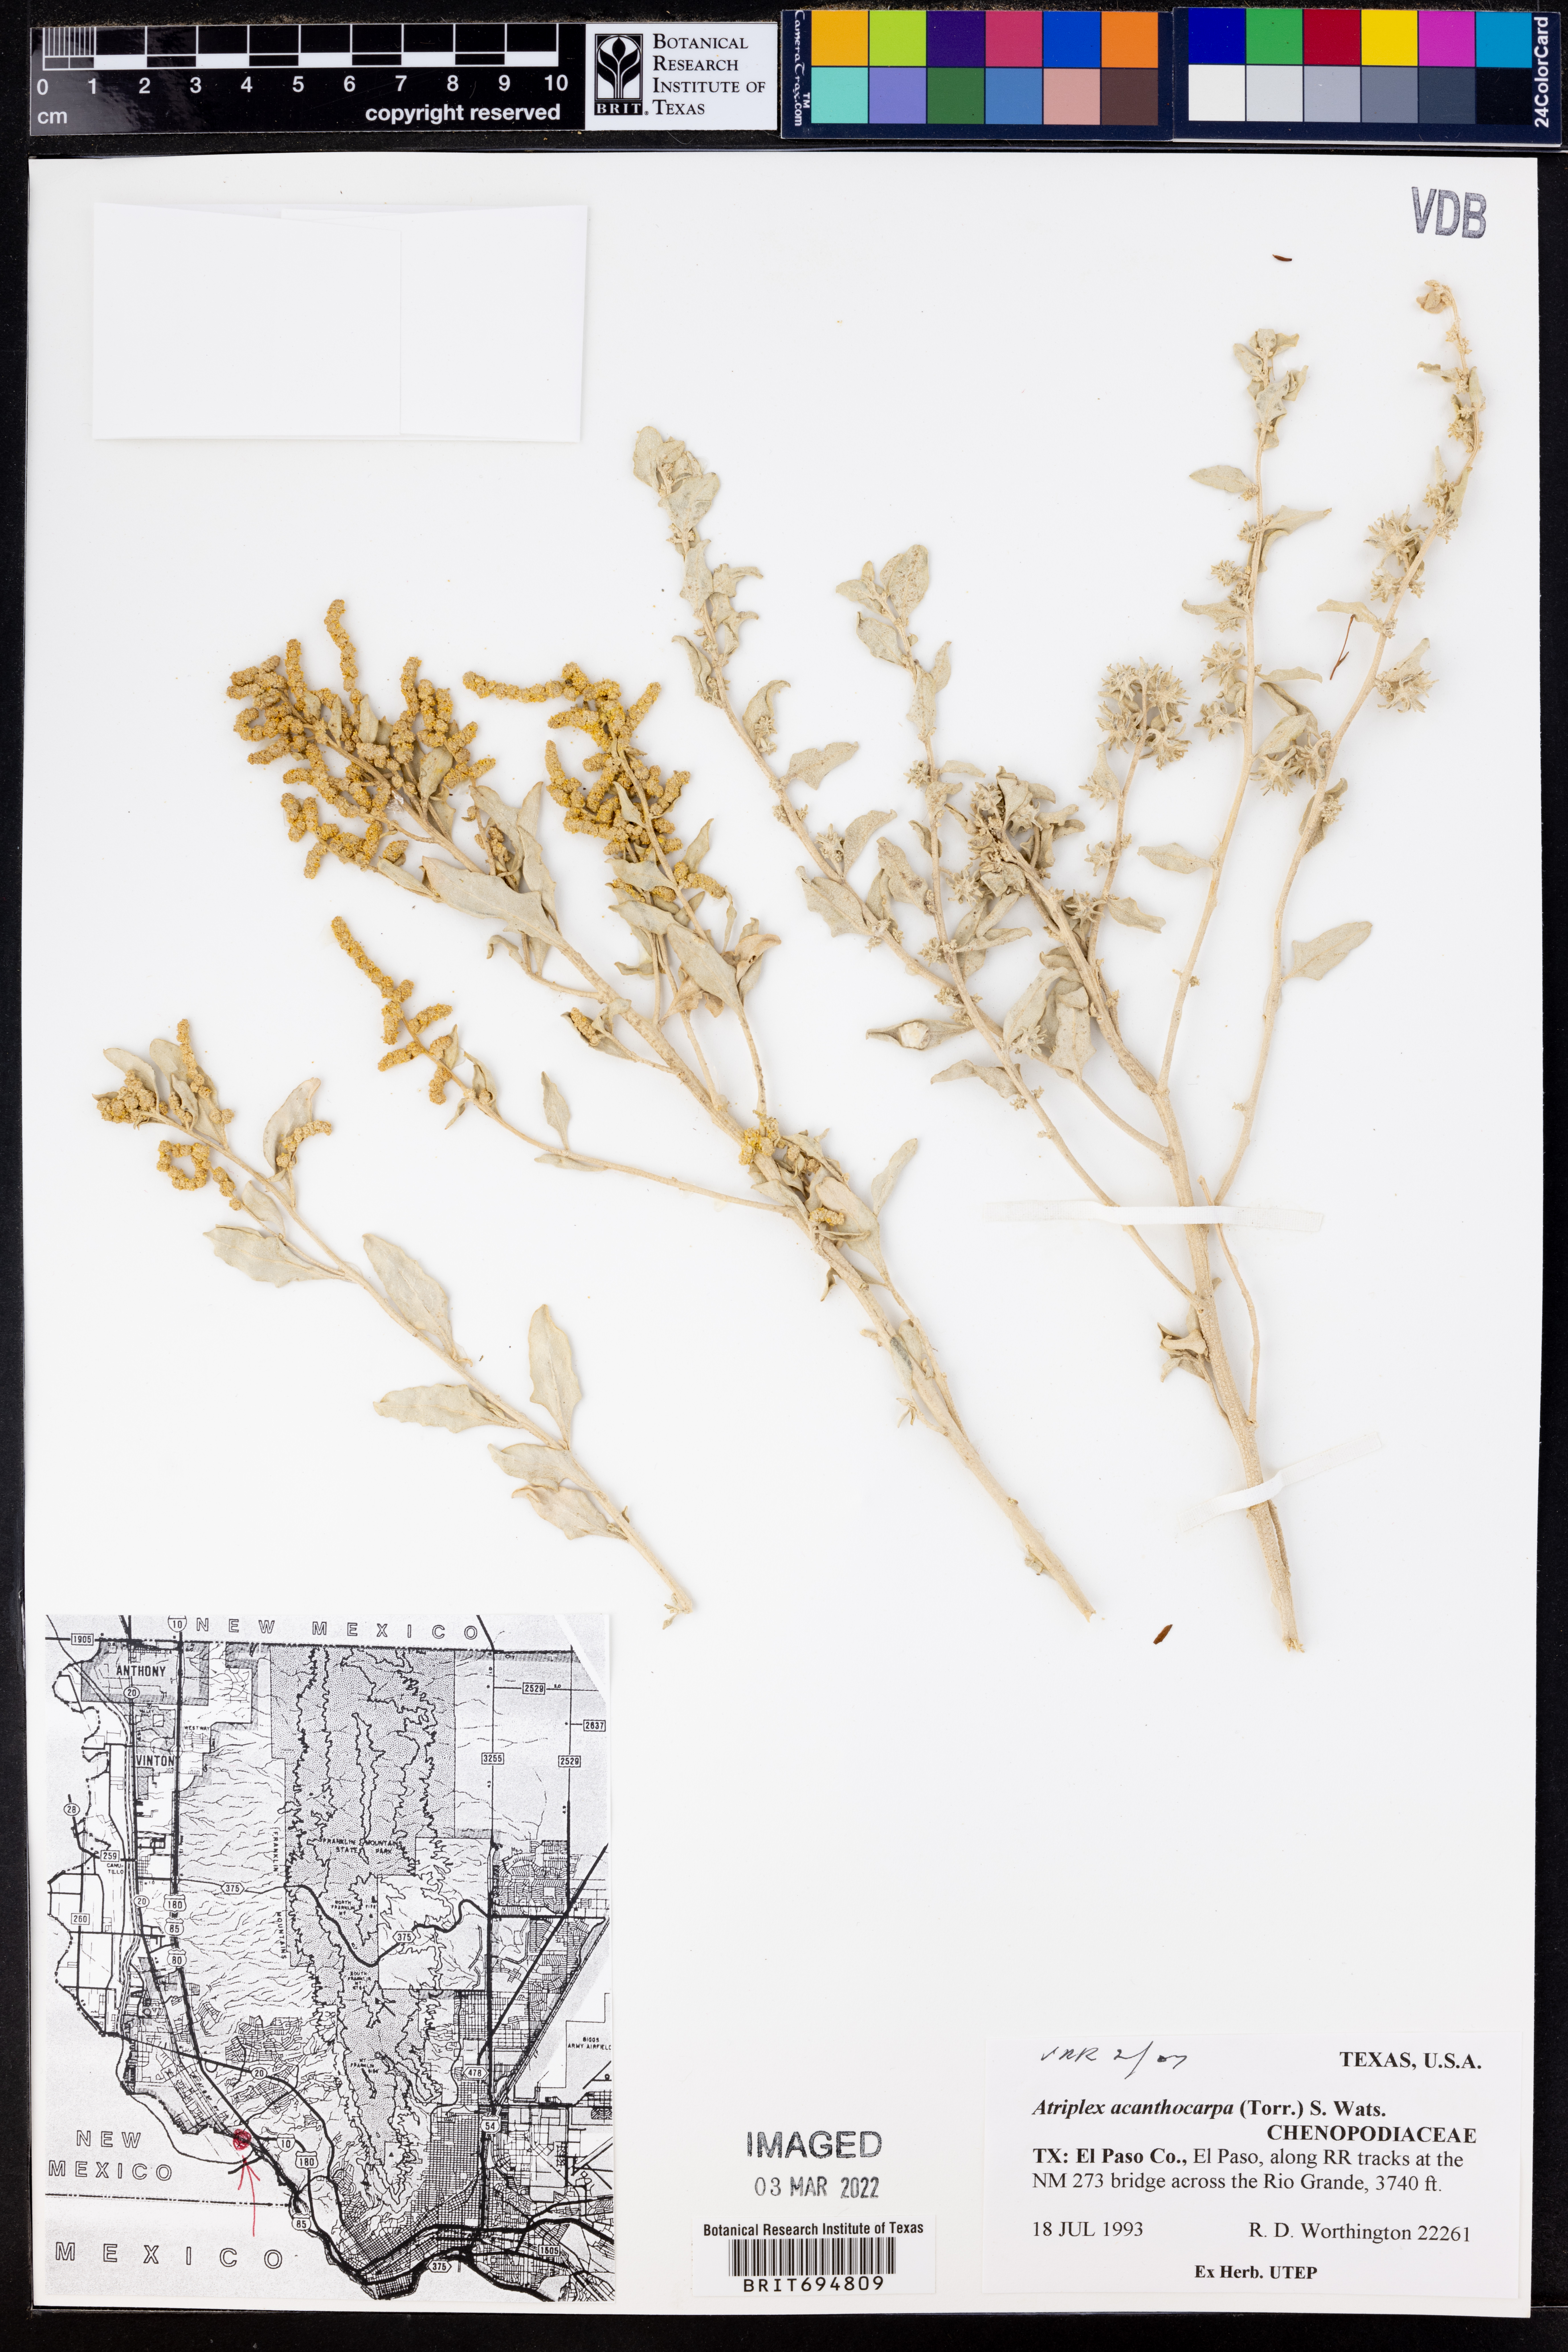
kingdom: Plantae
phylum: Tracheophyta
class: Magnoliopsida
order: Caryophyllales
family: Amaranthaceae
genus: Atriplex
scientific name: Atriplex acanthocarpa
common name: Burscale
